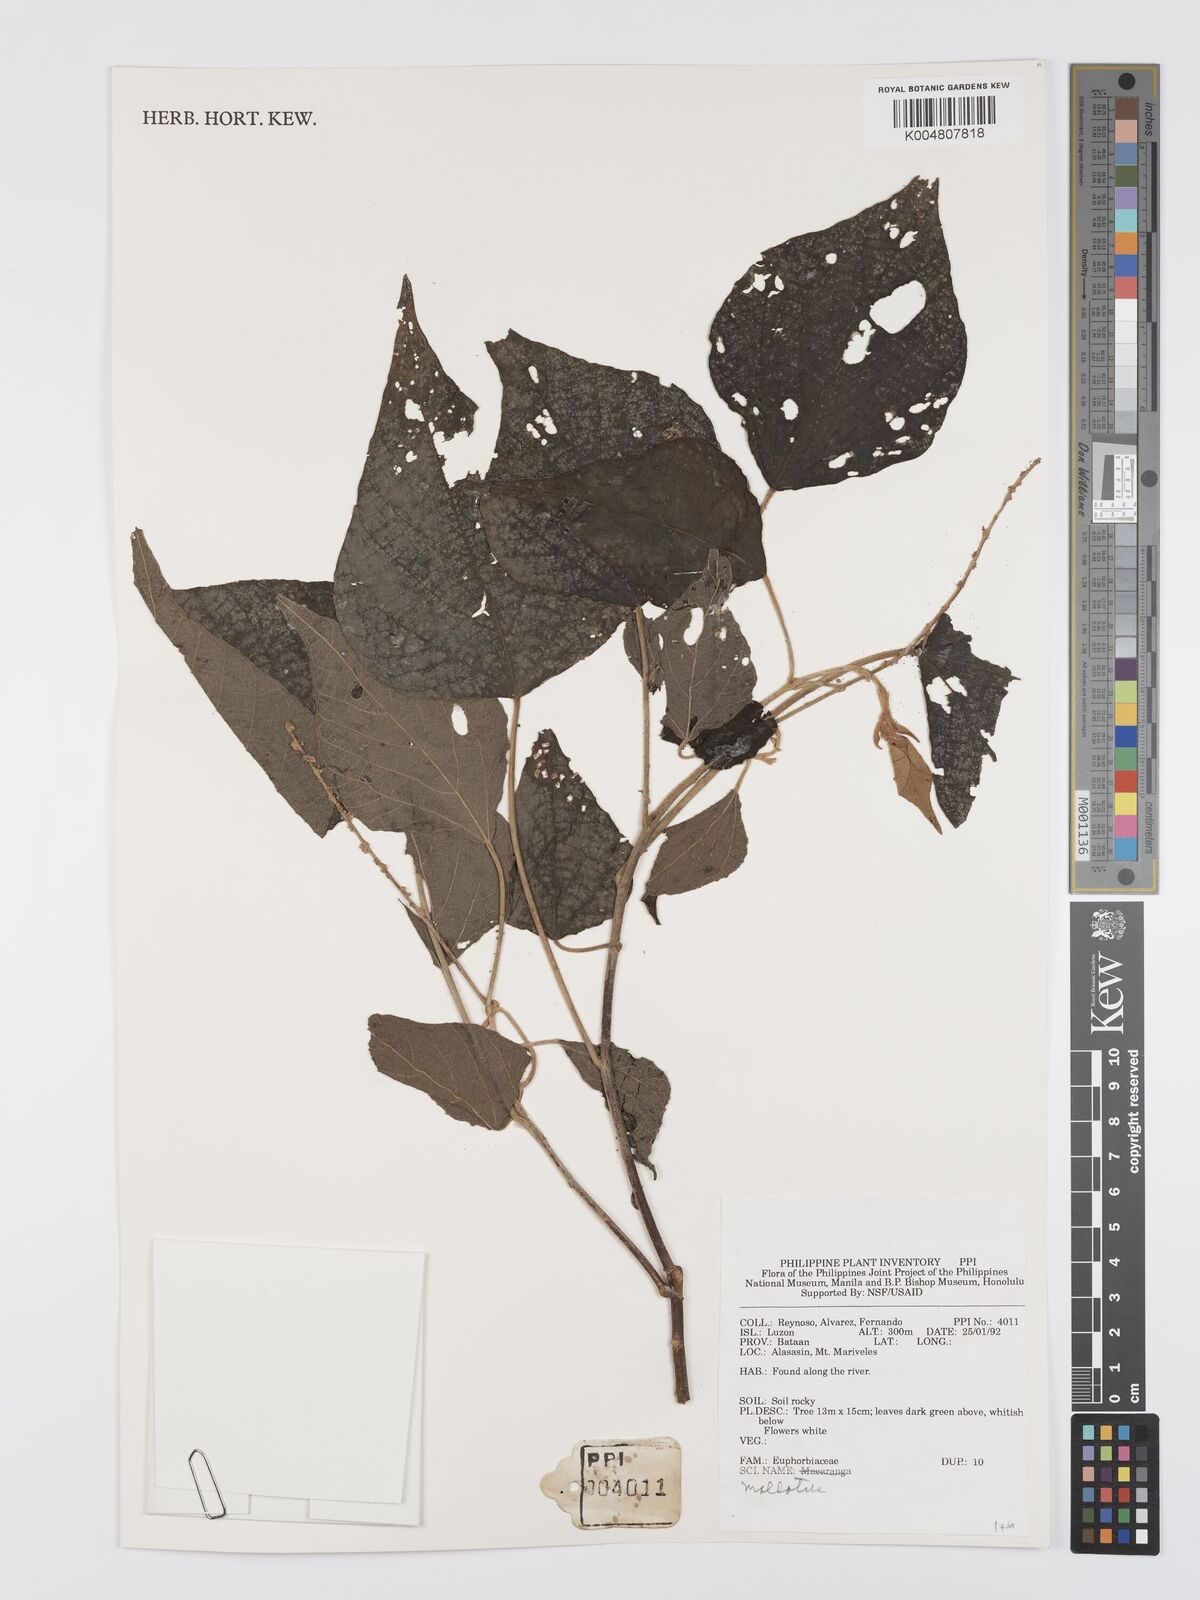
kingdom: Plantae
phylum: Tracheophyta
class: Magnoliopsida
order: Malpighiales
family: Euphorbiaceae
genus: Mallotus
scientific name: Mallotus
